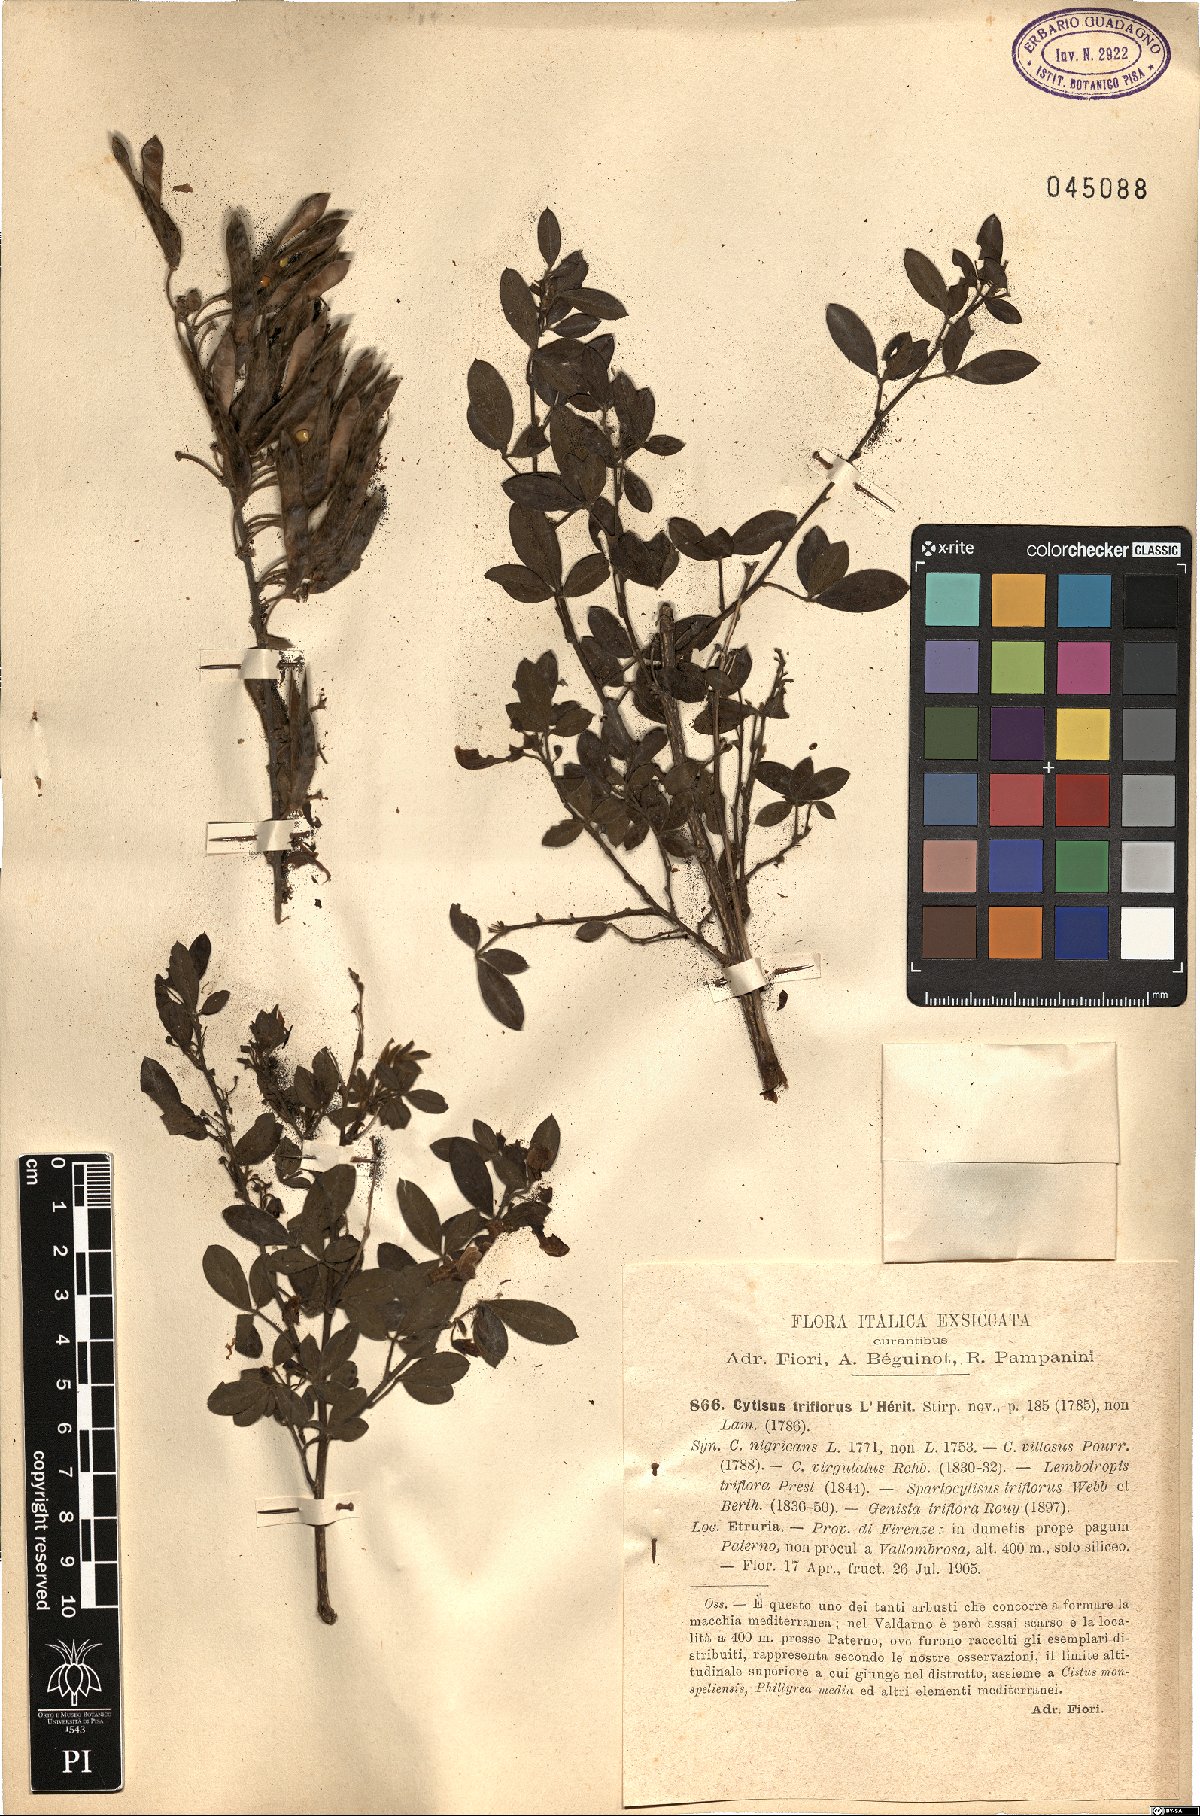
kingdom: Plantae
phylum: Tracheophyta
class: Magnoliopsida
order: Fabales
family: Fabaceae
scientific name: Fabaceae
